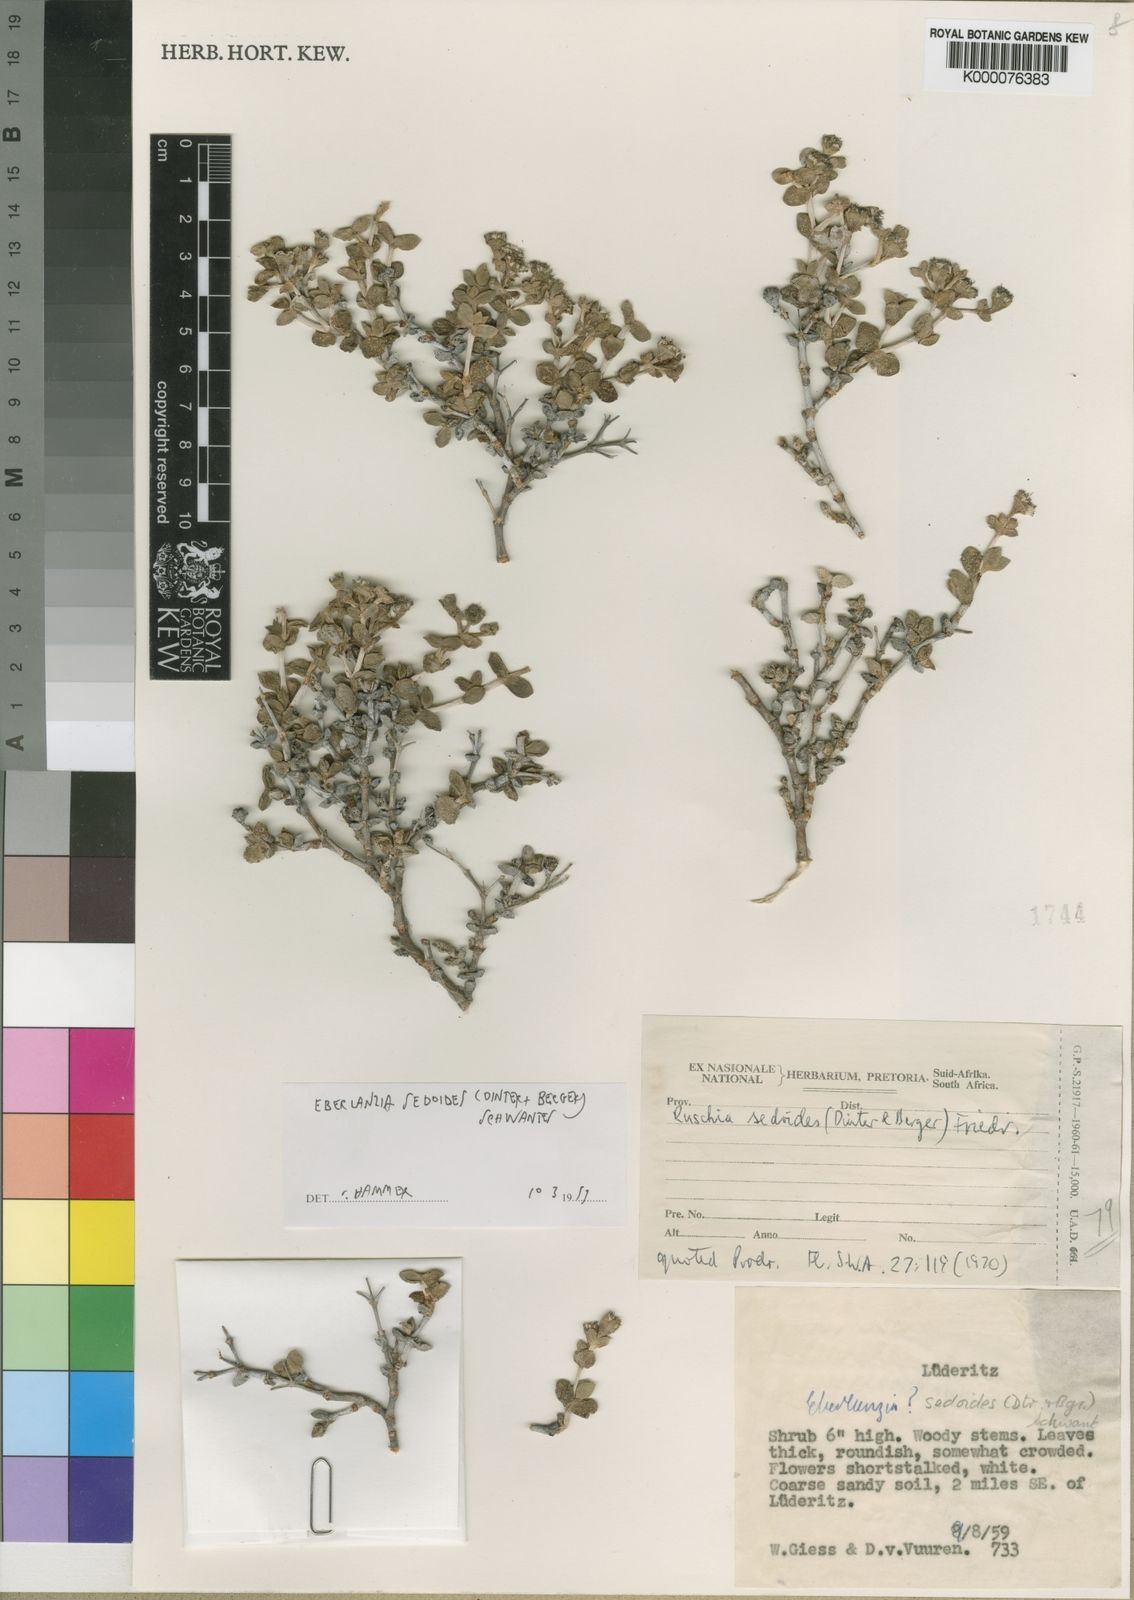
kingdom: Plantae
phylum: Tracheophyta
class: Magnoliopsida
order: Caryophyllales
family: Aizoaceae
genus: Eberlanzia
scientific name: Eberlanzia sedoides
